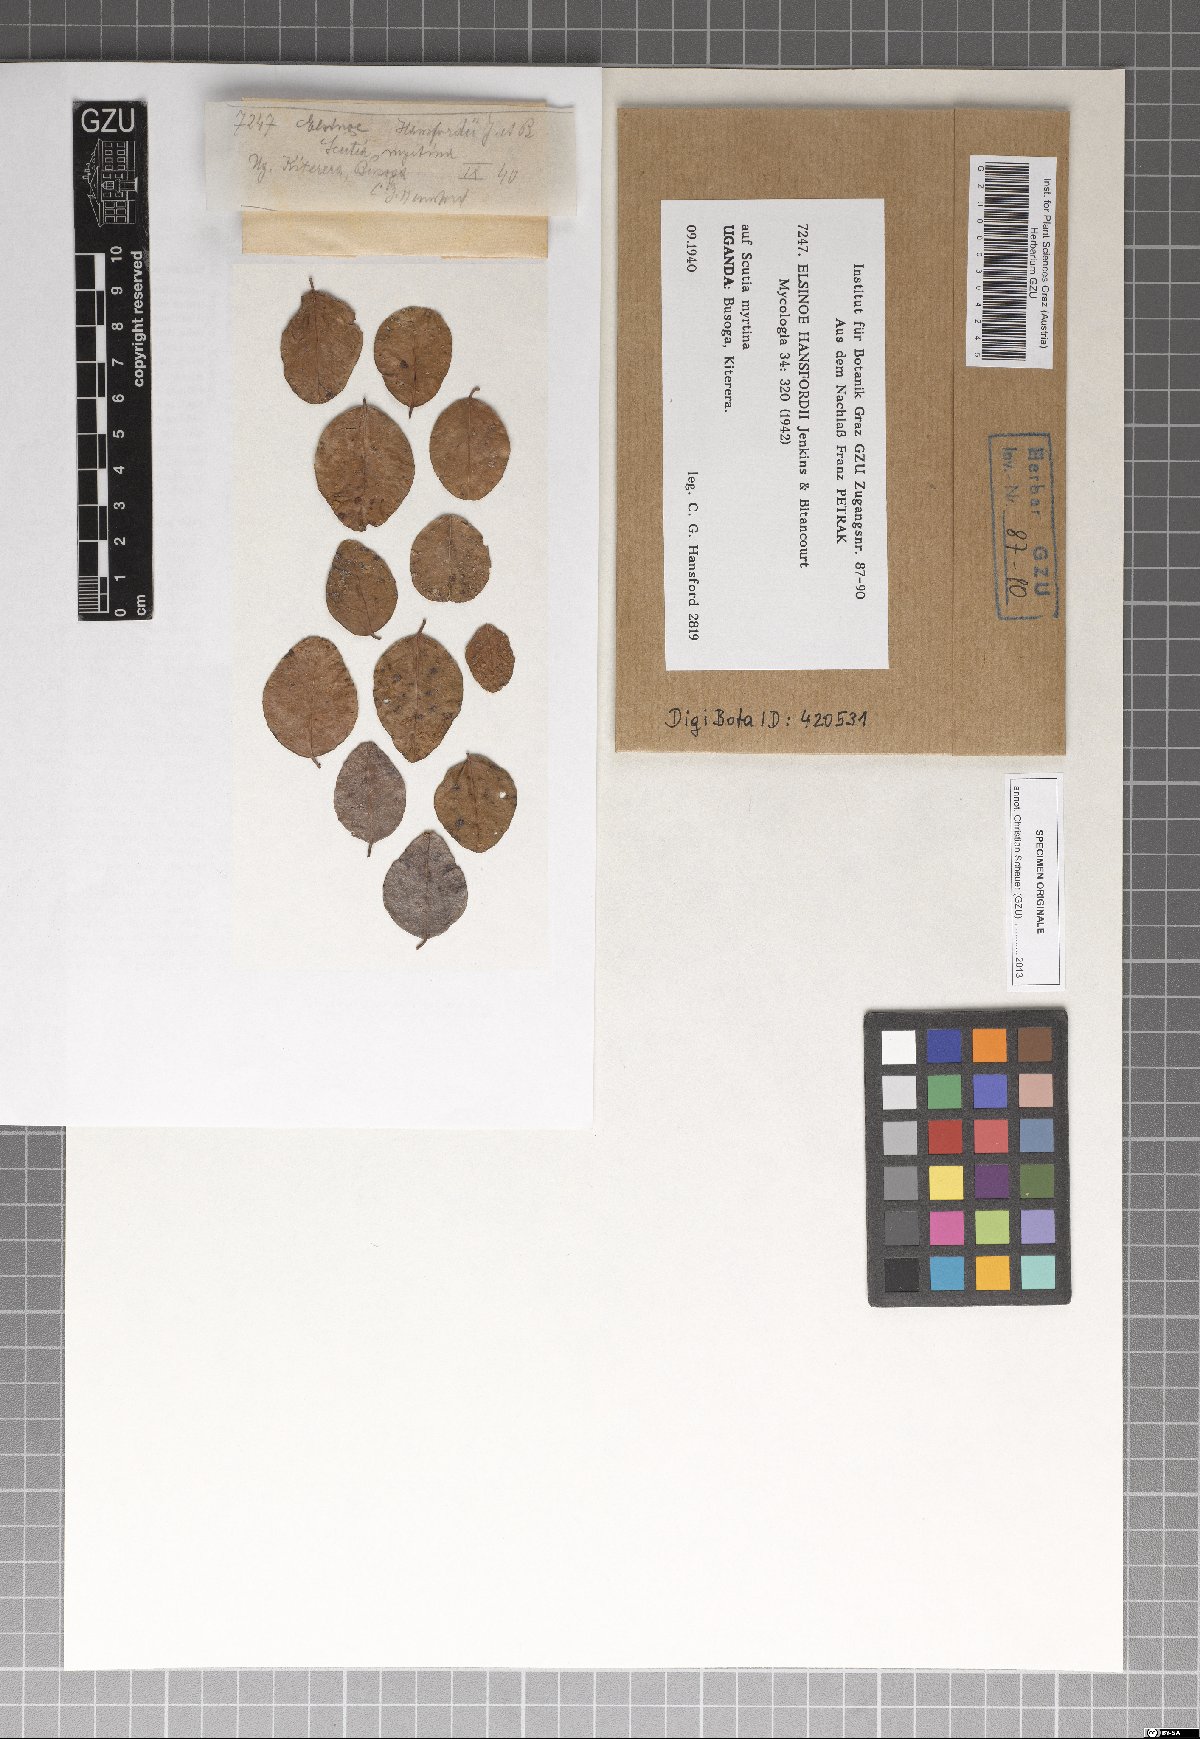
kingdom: Fungi
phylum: Ascomycota
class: Dothideomycetes
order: Myriangiales
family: Elsinoaceae
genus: Elsinoe
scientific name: Elsinoe hansfordii
